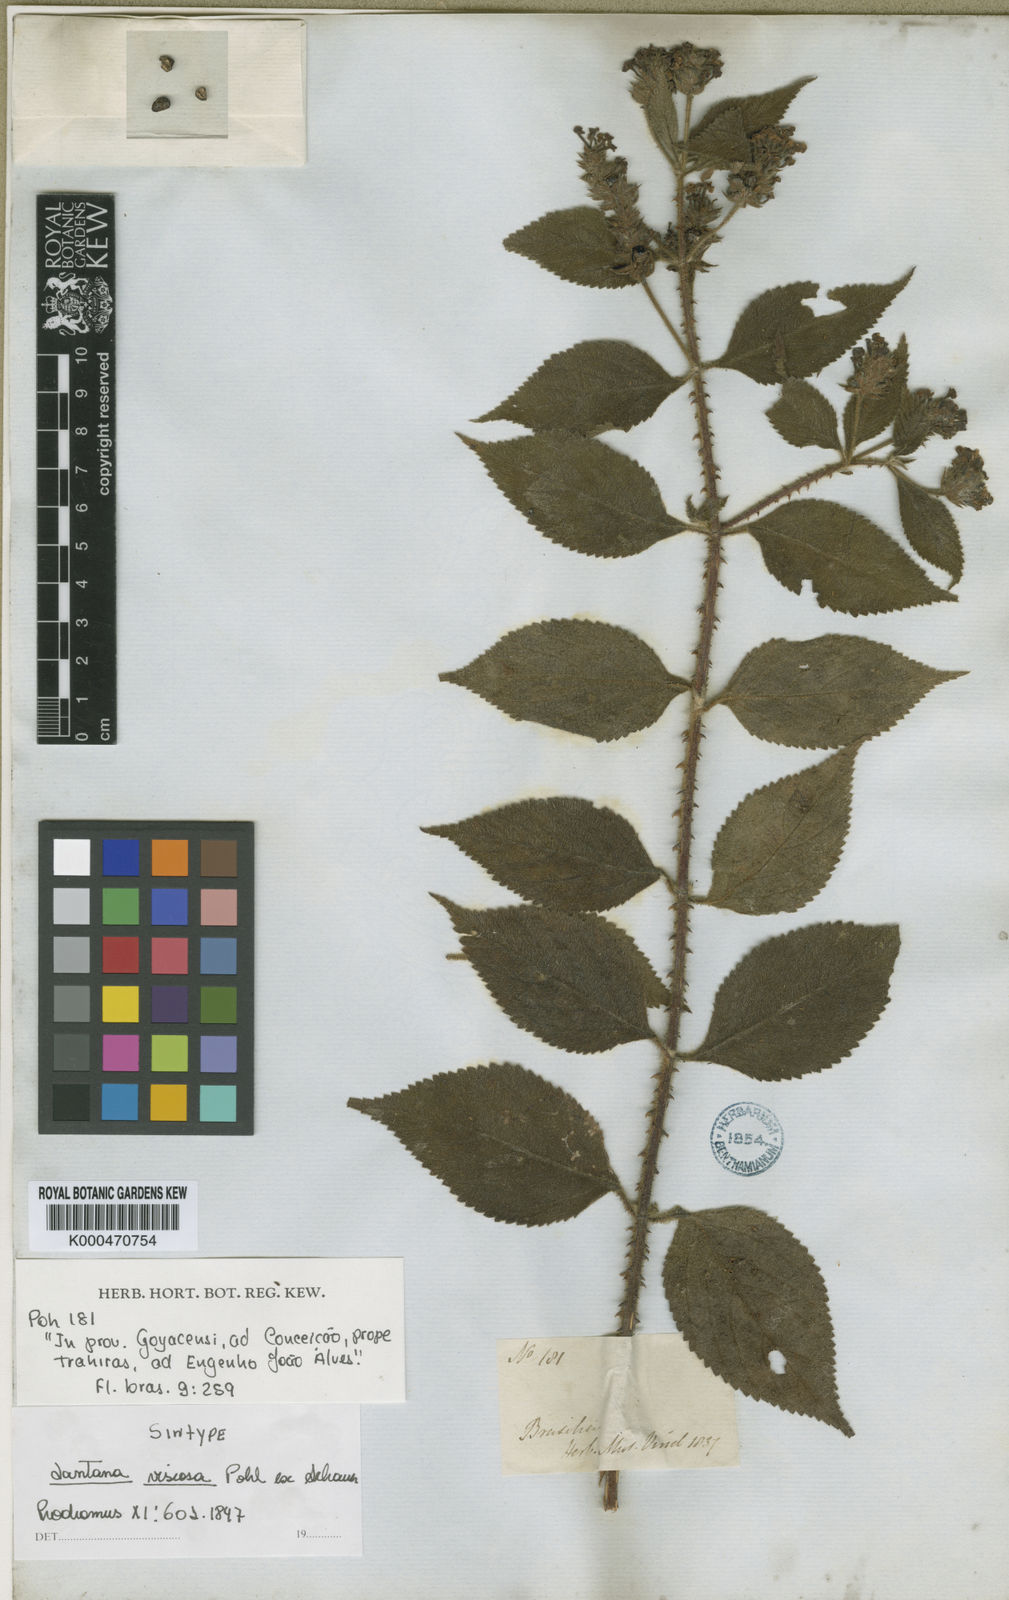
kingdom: Plantae
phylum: Tracheophyta
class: Magnoliopsida
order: Lamiales
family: Verbenaceae
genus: Lantana
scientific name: Lantana viscosa
